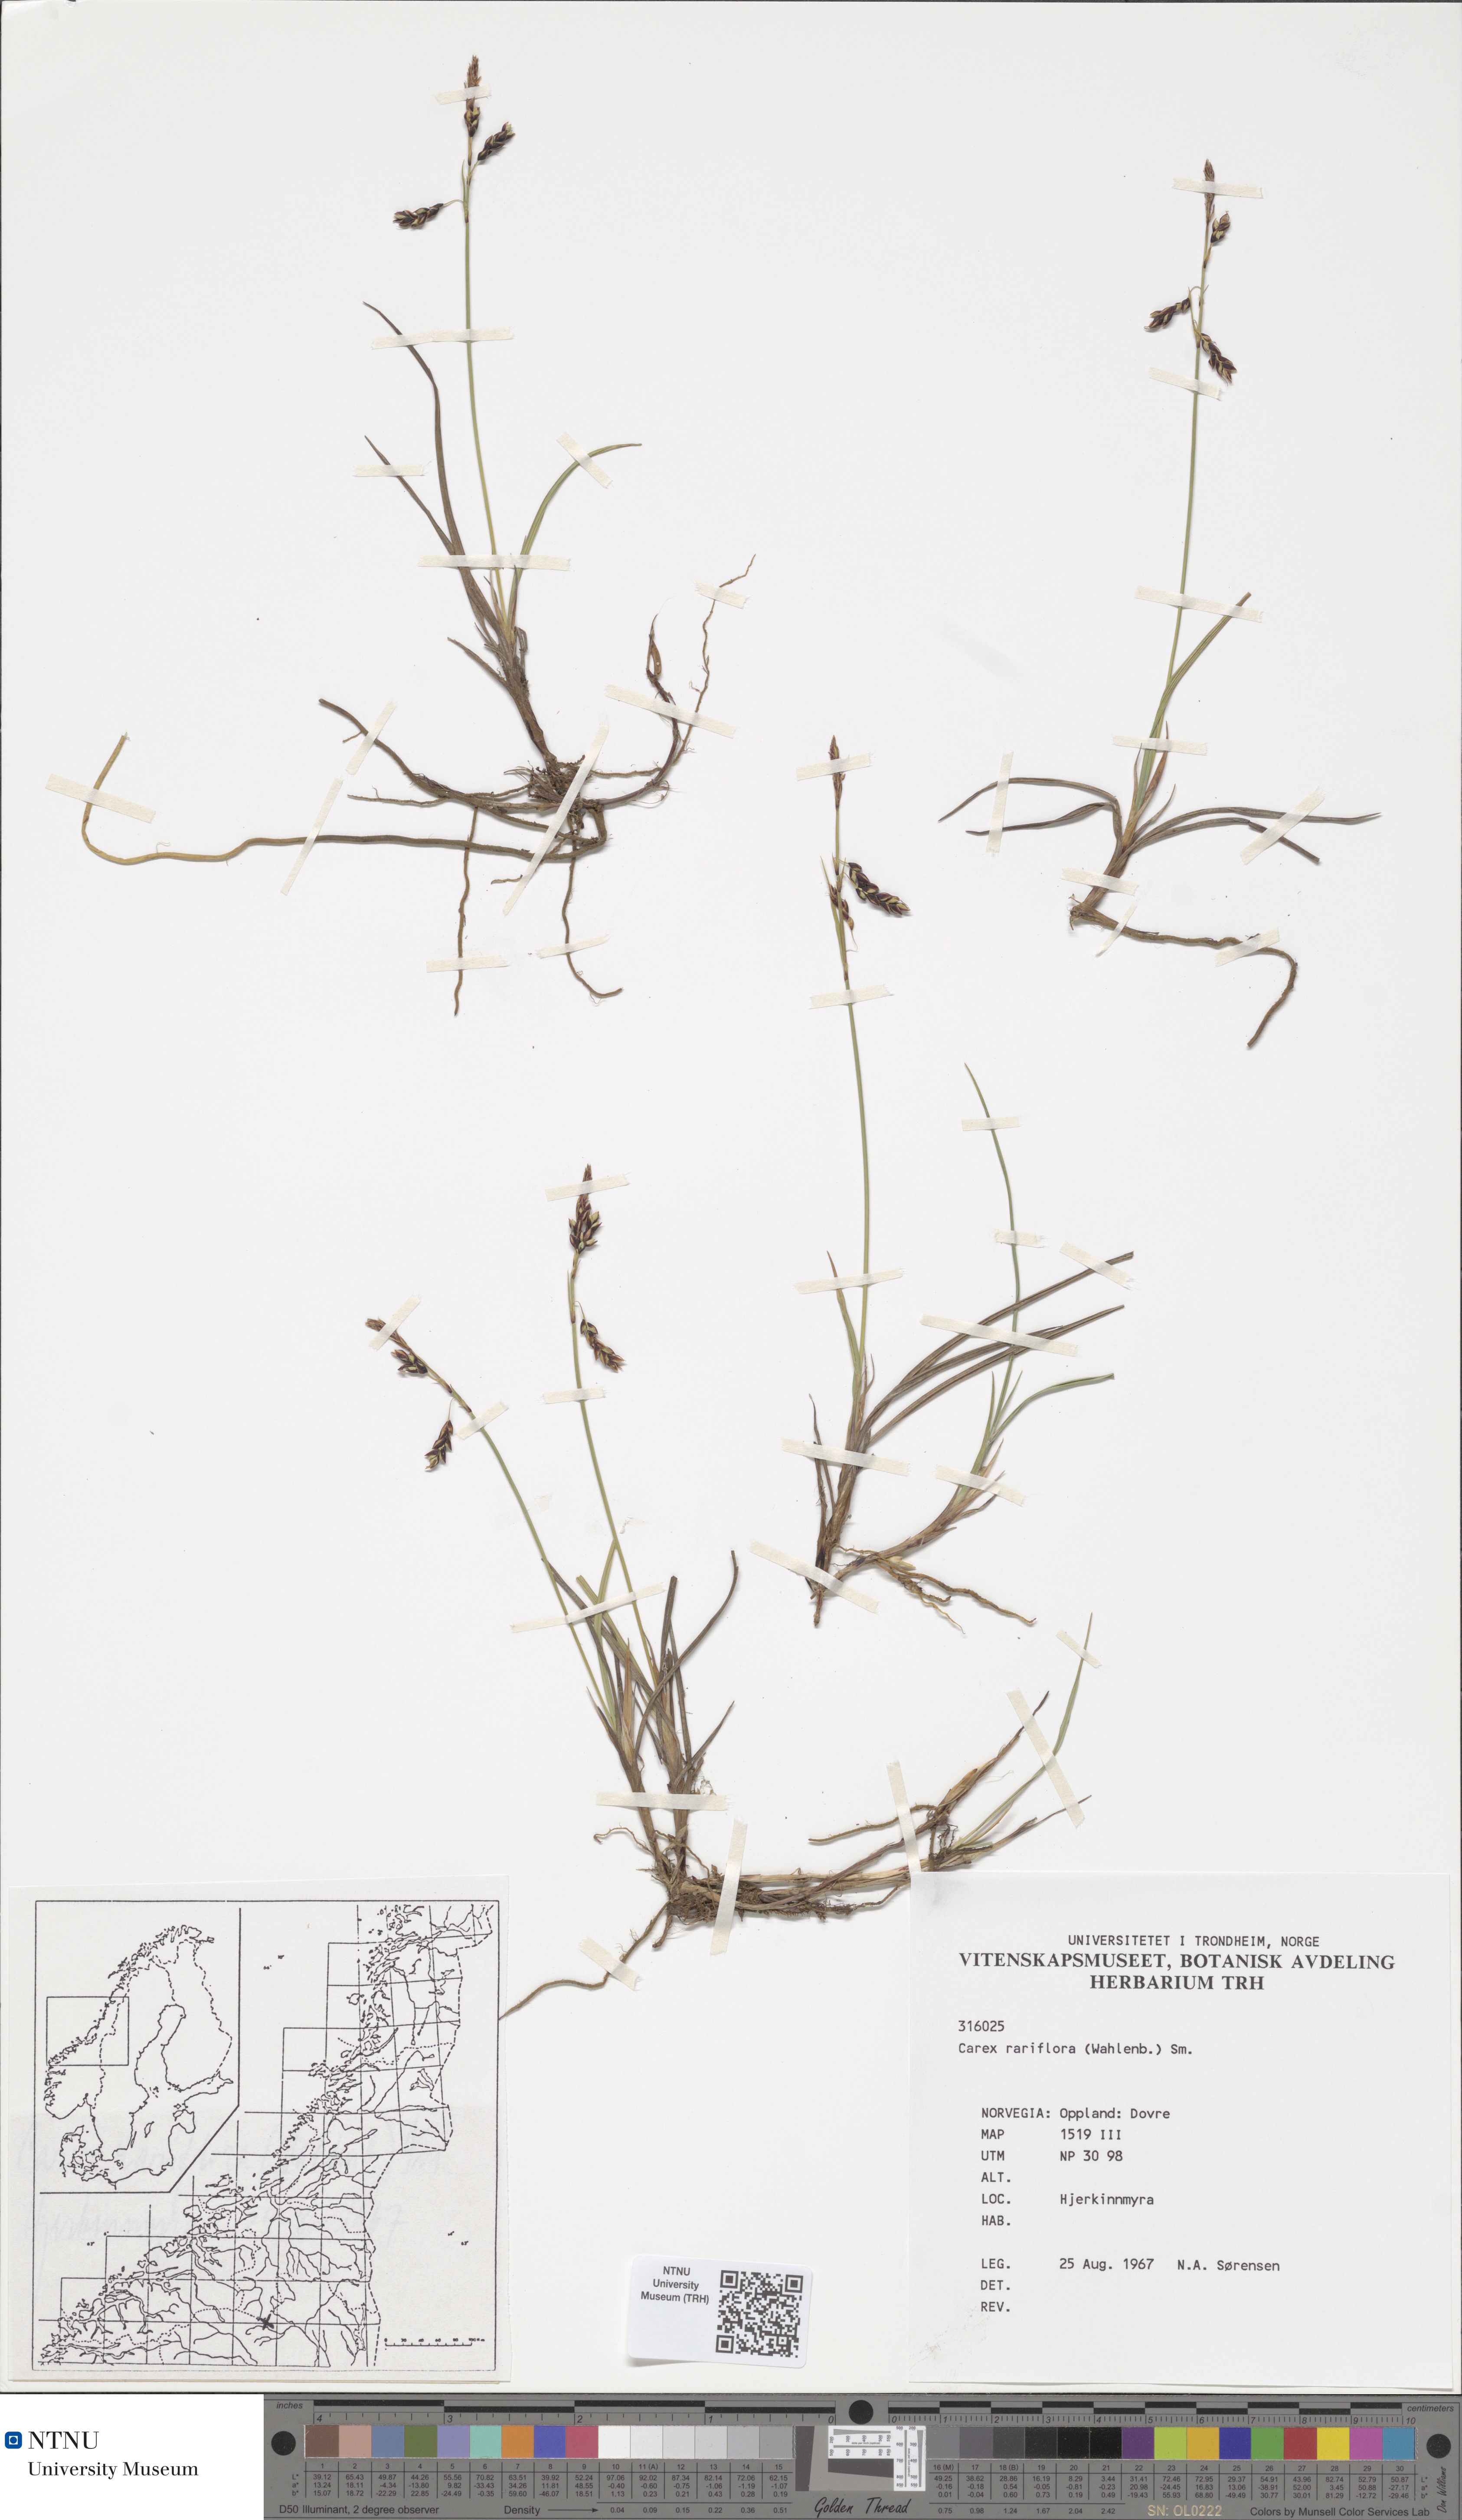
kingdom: Plantae
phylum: Tracheophyta
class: Liliopsida
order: Poales
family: Cyperaceae
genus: Carex
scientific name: Carex rariflora
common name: Loose-flowered alpine sedge
